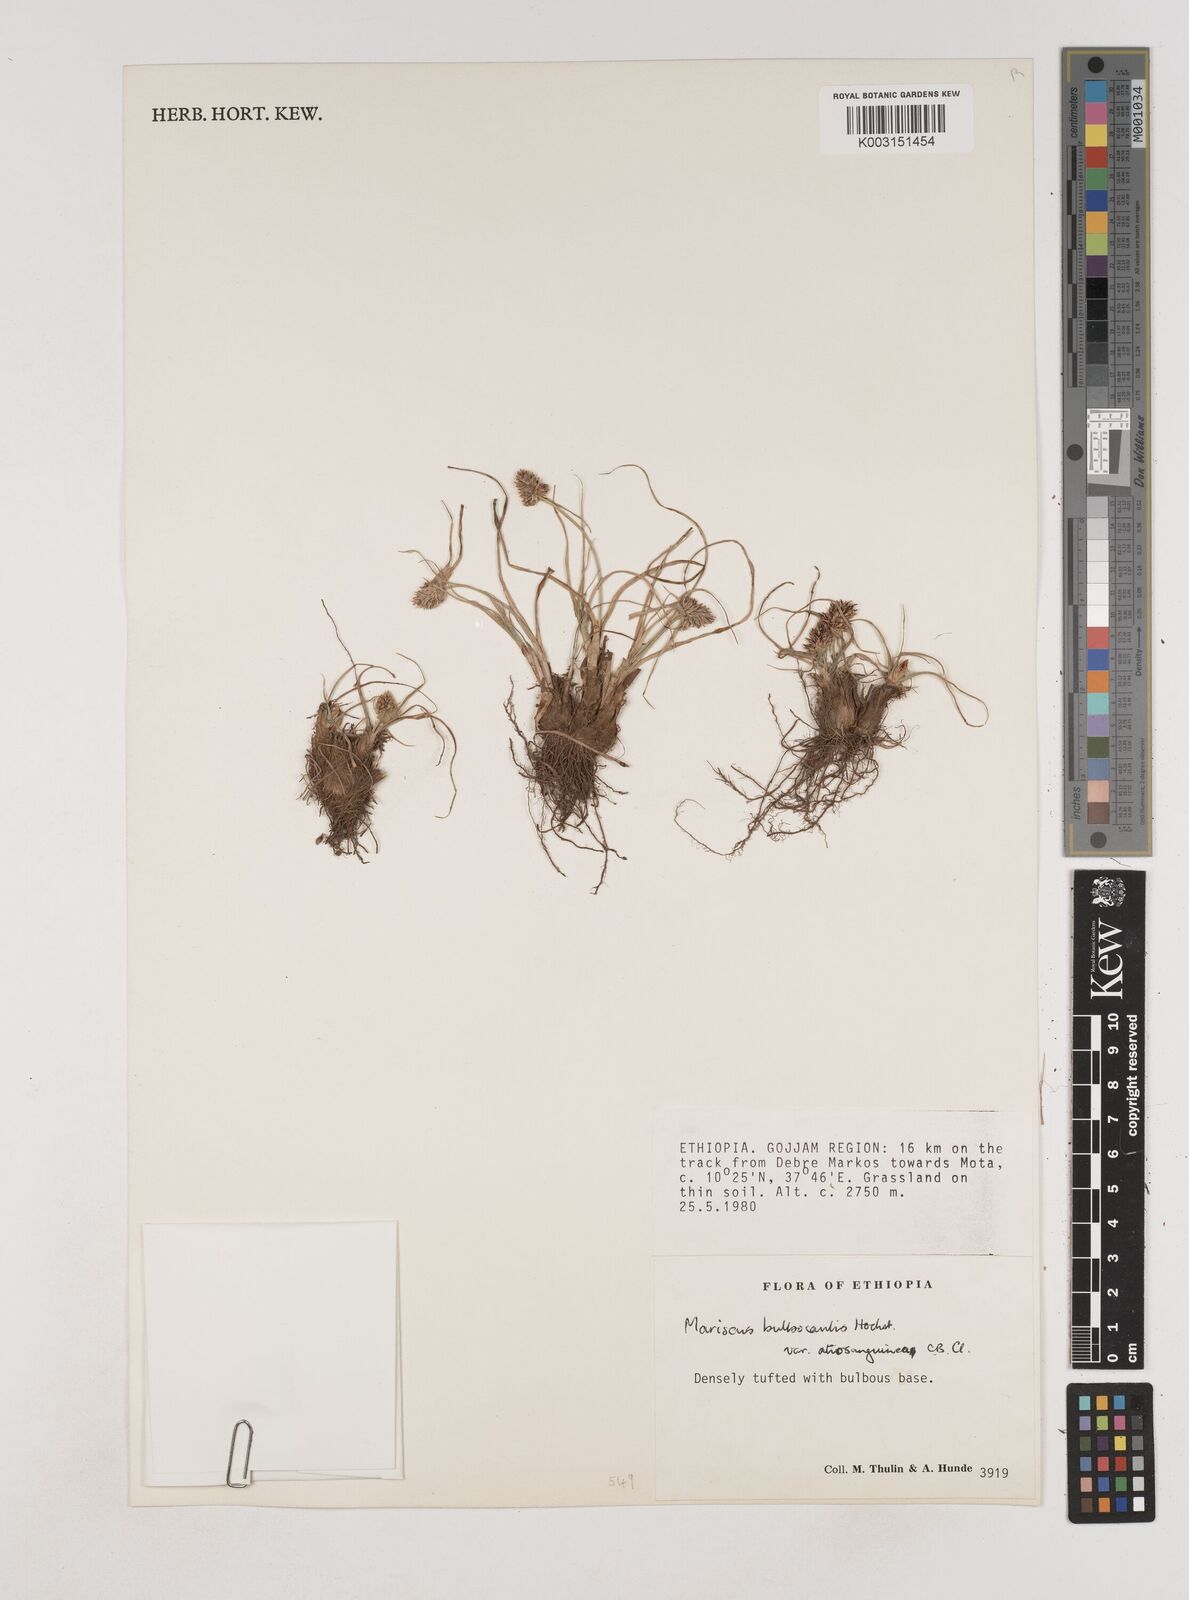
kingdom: Plantae
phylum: Tracheophyta
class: Liliopsida
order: Poales
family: Cyperaceae
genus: Cyperus
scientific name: Cyperus plateilema
